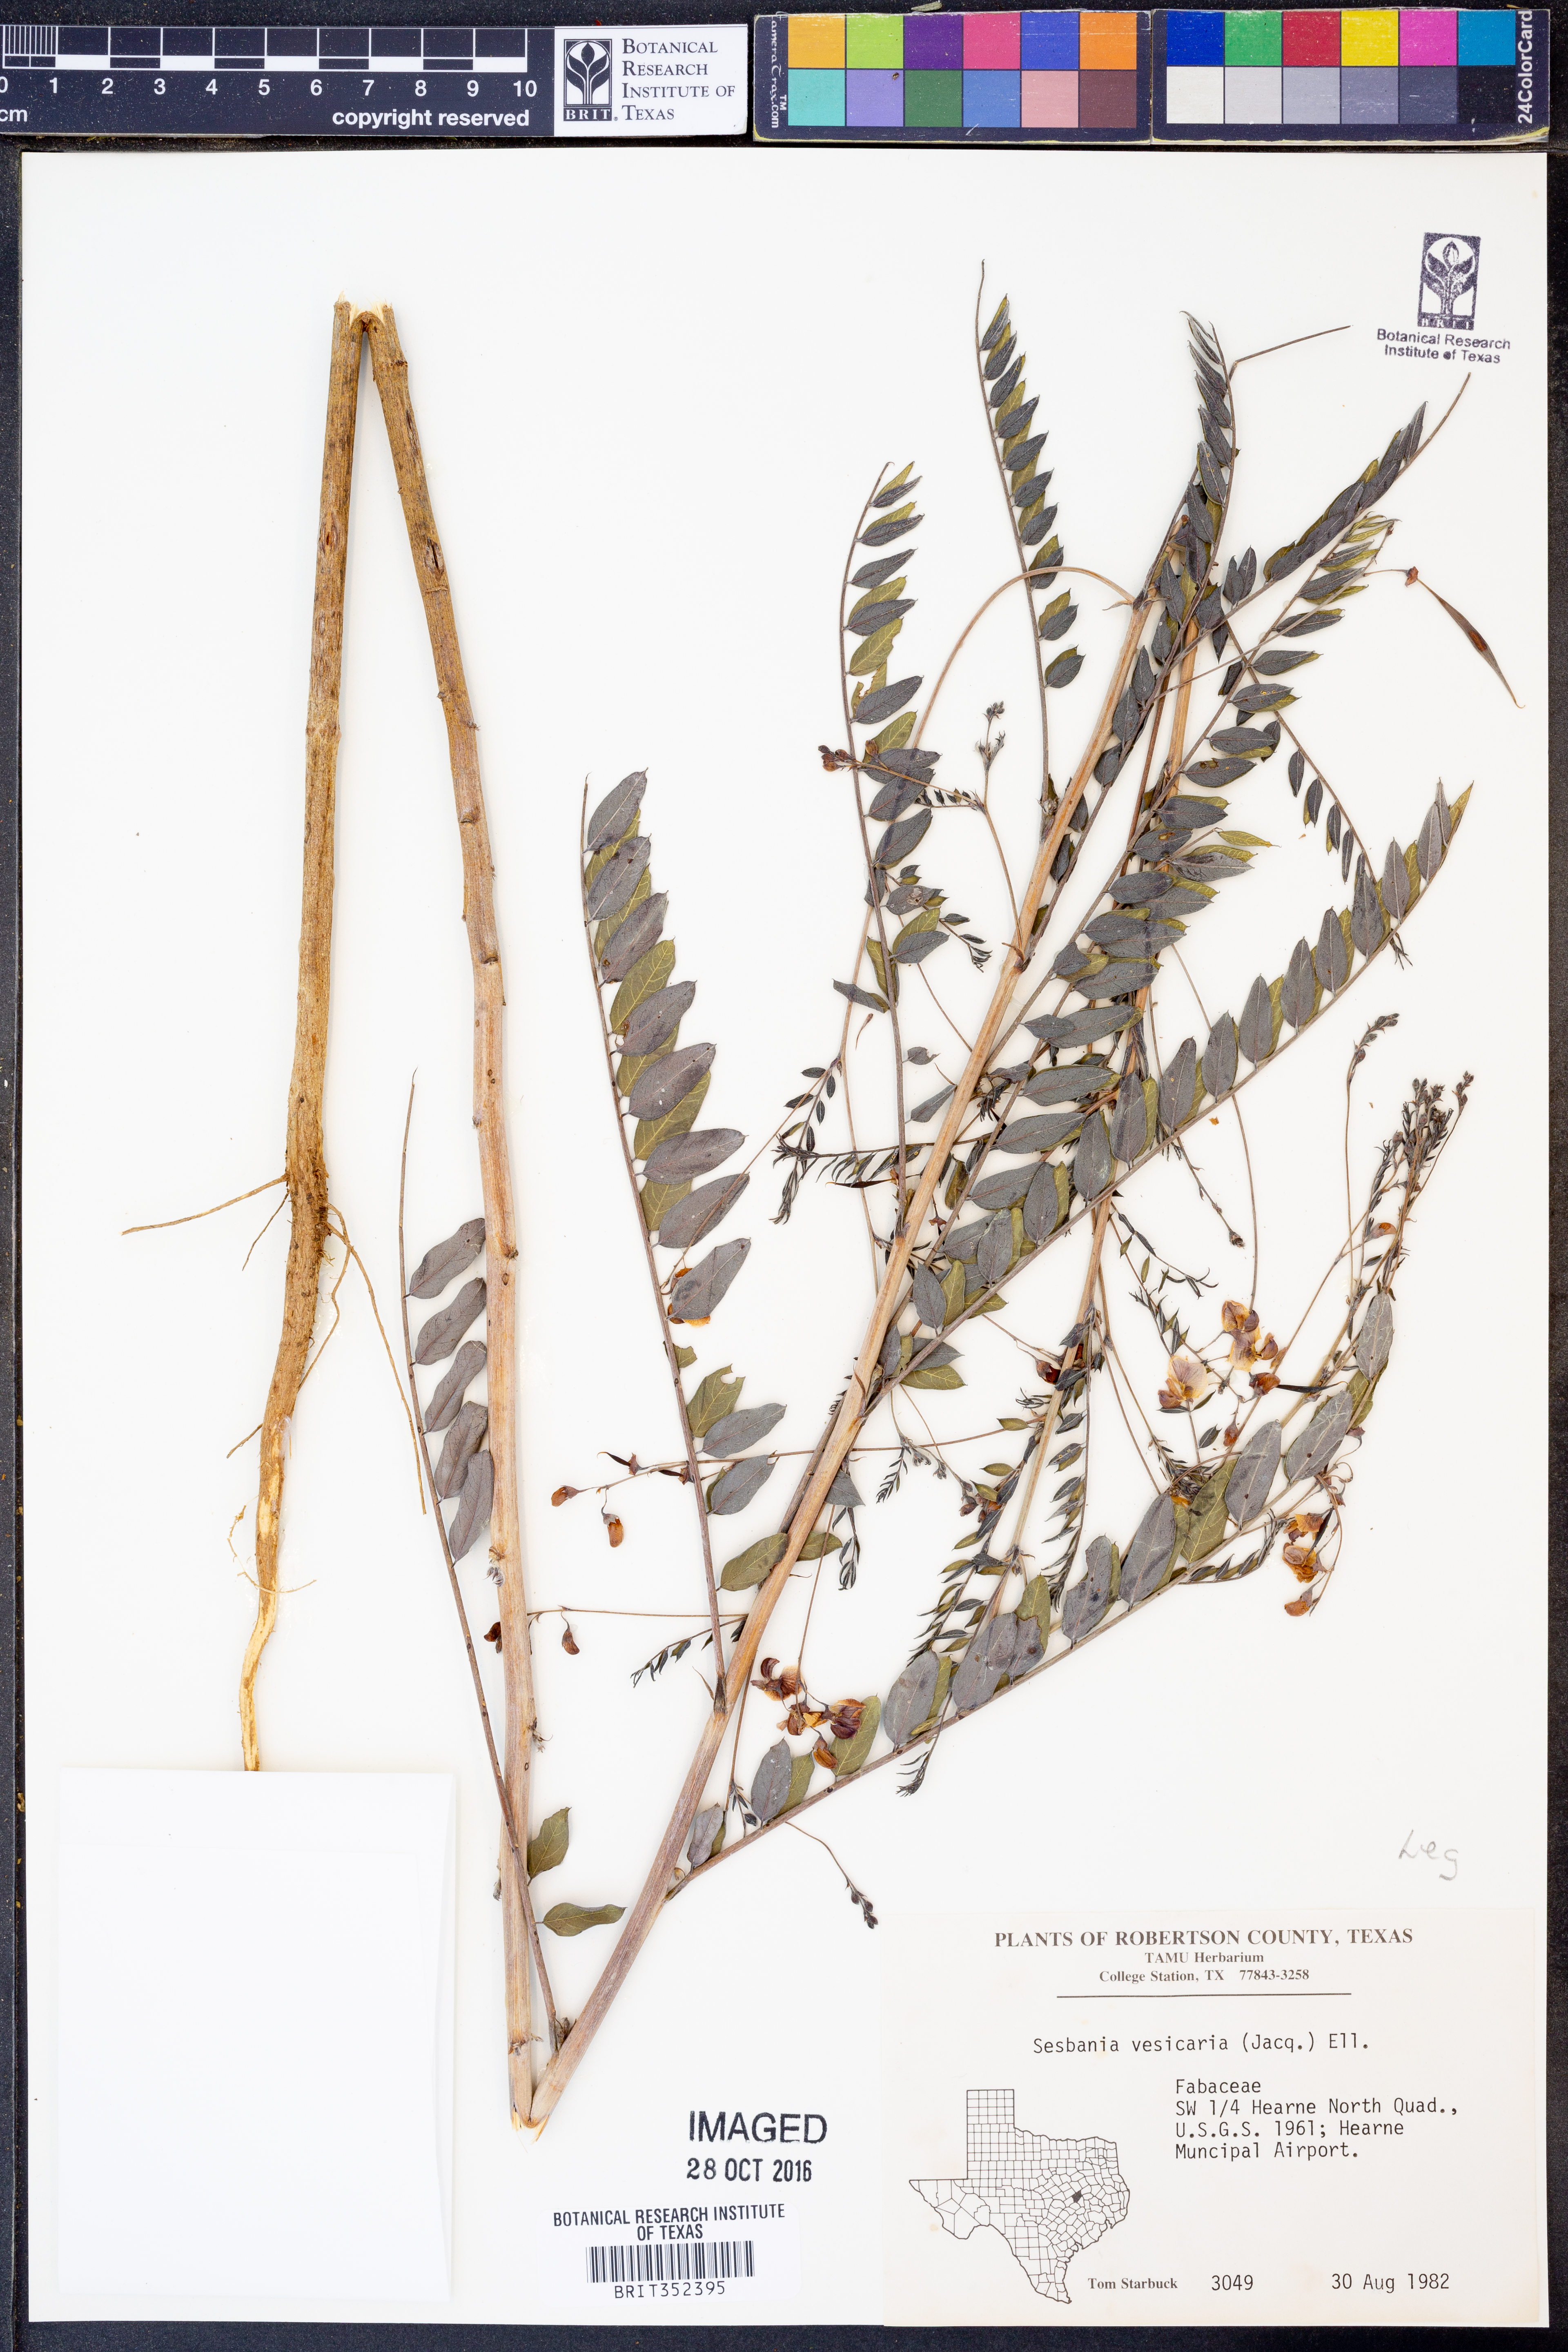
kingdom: Plantae
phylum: Tracheophyta
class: Magnoliopsida
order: Fabales
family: Fabaceae
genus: Sesbania
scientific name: Sesbania vesicaria
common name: Bagpod
